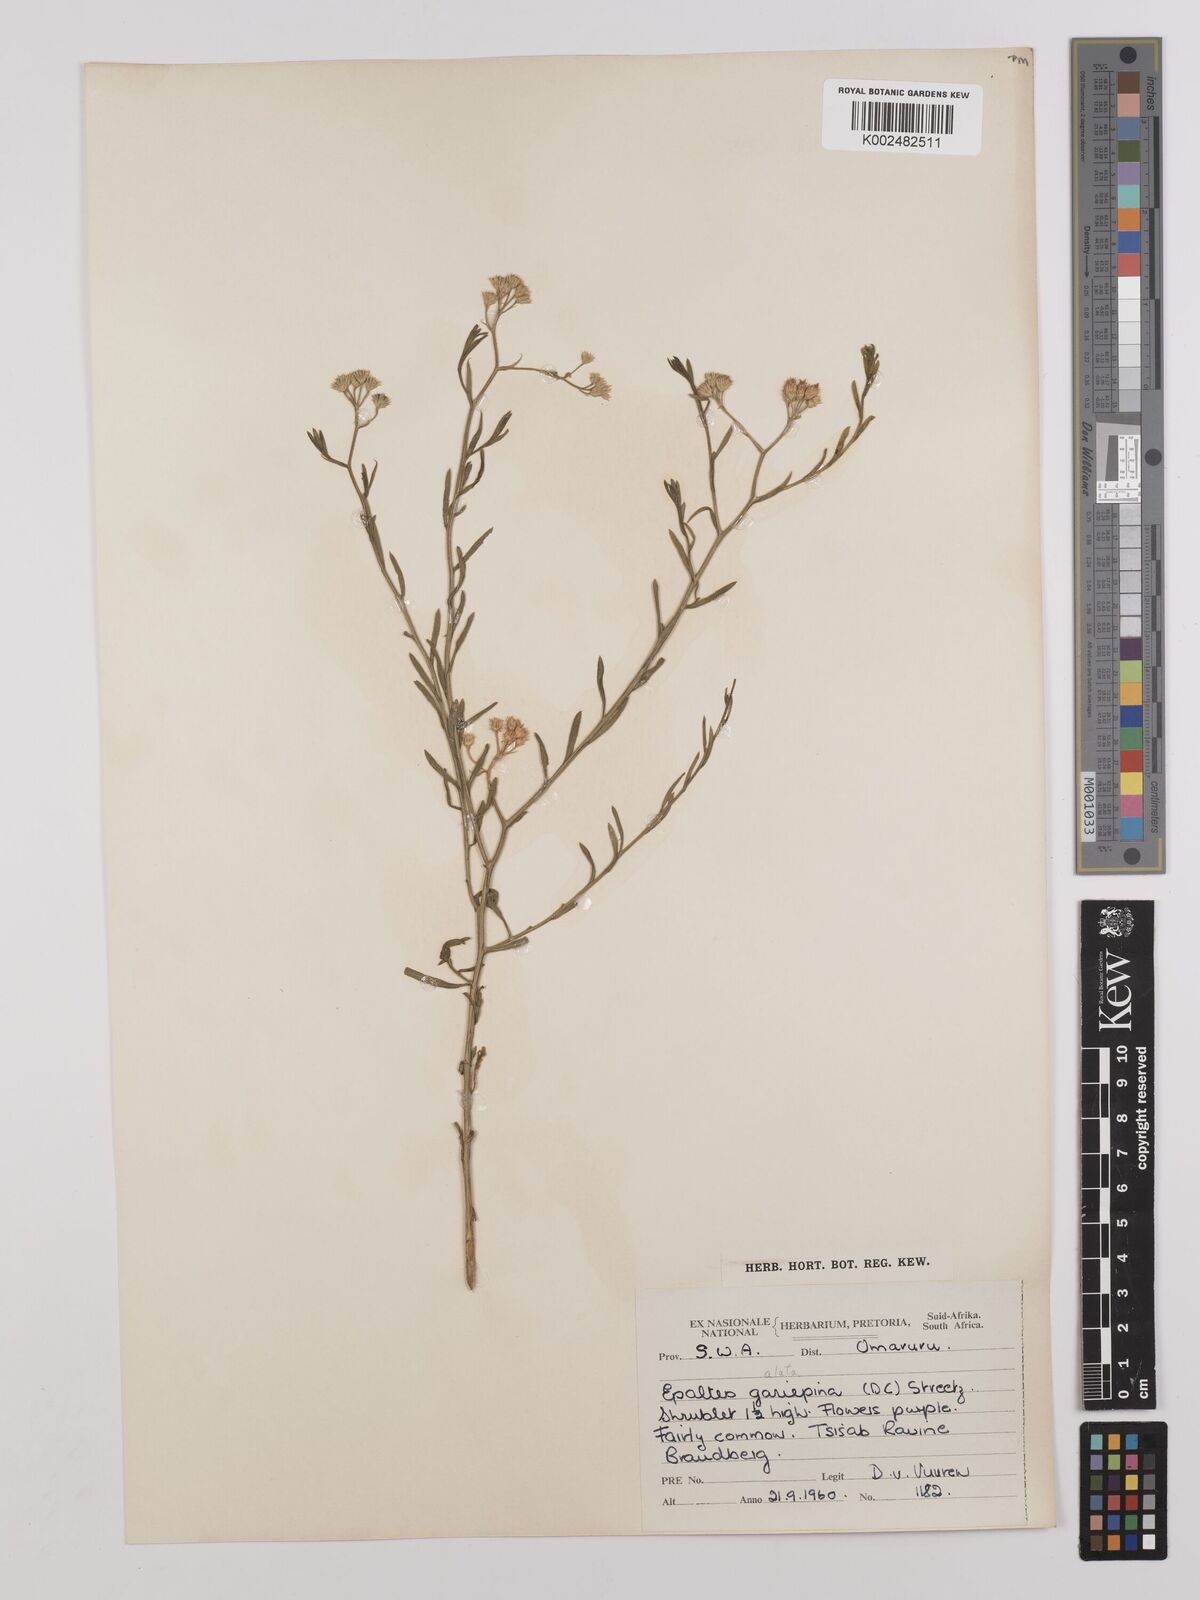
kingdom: Plantae
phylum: Tracheophyta
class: Magnoliopsida
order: Asterales
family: Asteraceae
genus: Litogyne
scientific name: Litogyne gariepina
